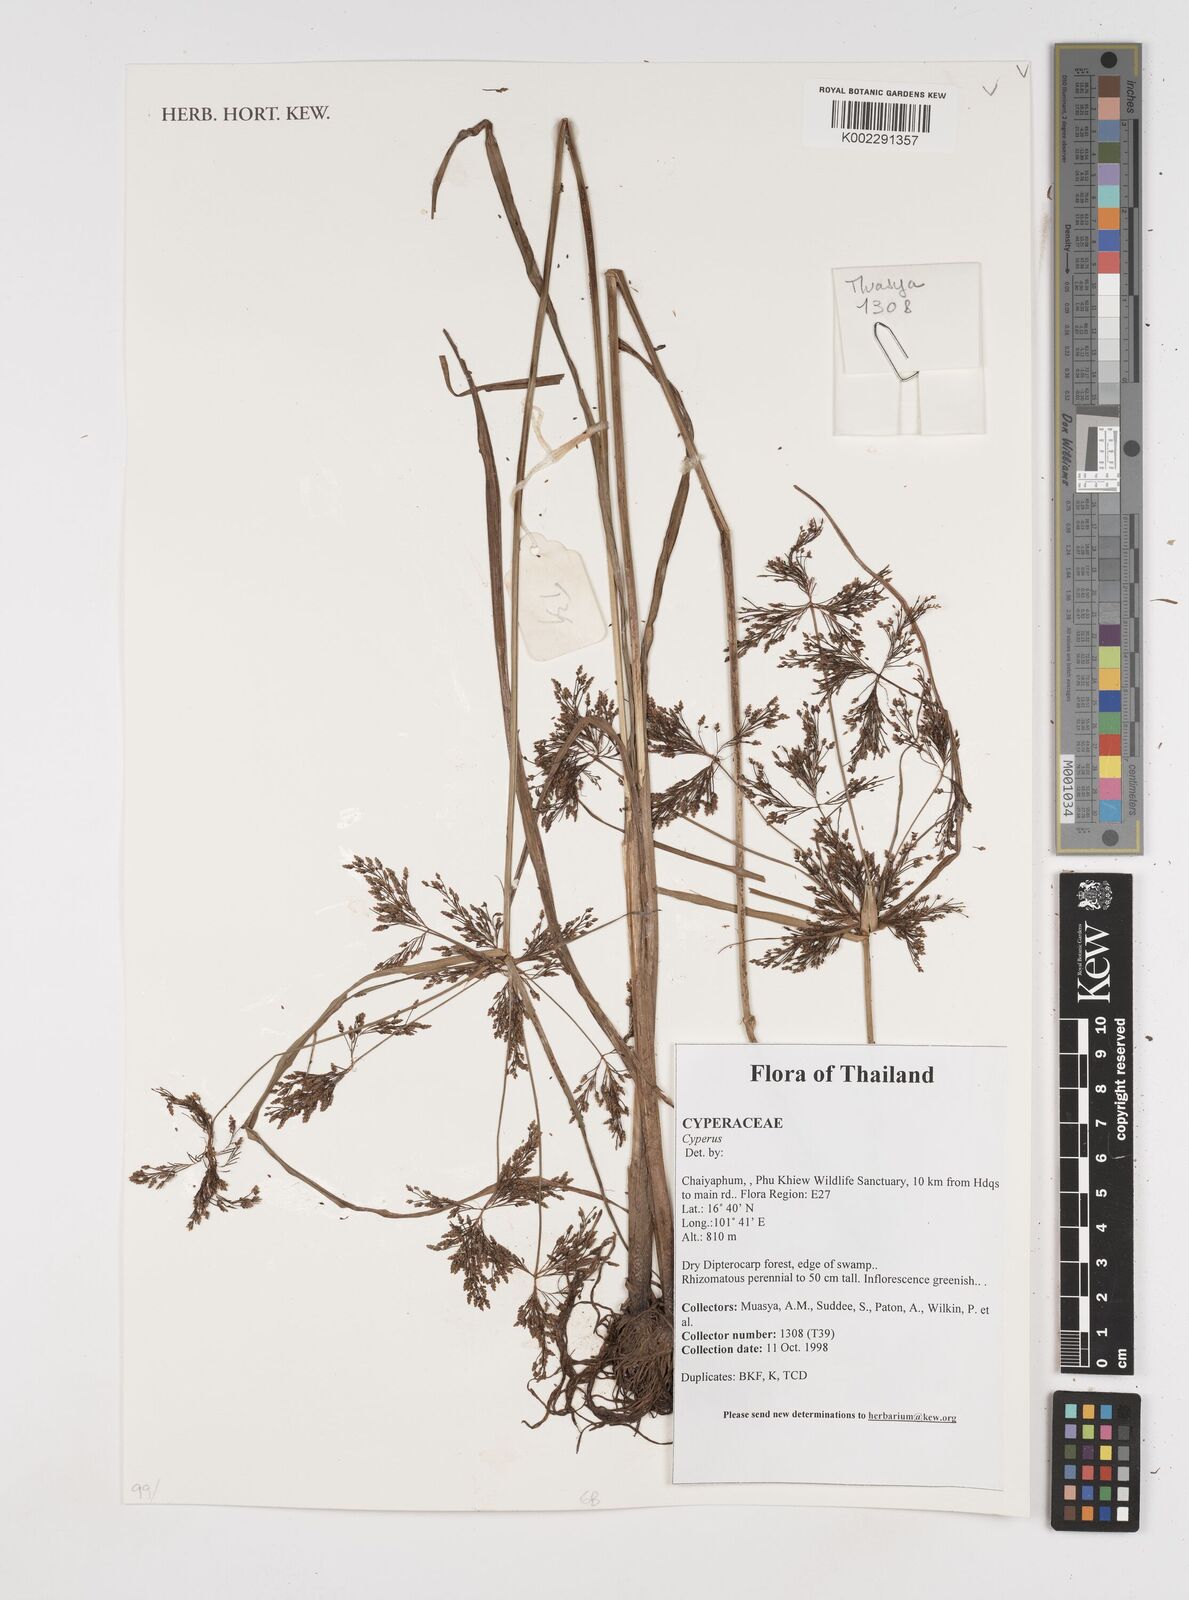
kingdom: Plantae
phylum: Tracheophyta
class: Liliopsida
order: Poales
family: Cyperaceae
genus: Cyperus
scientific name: Cyperus
